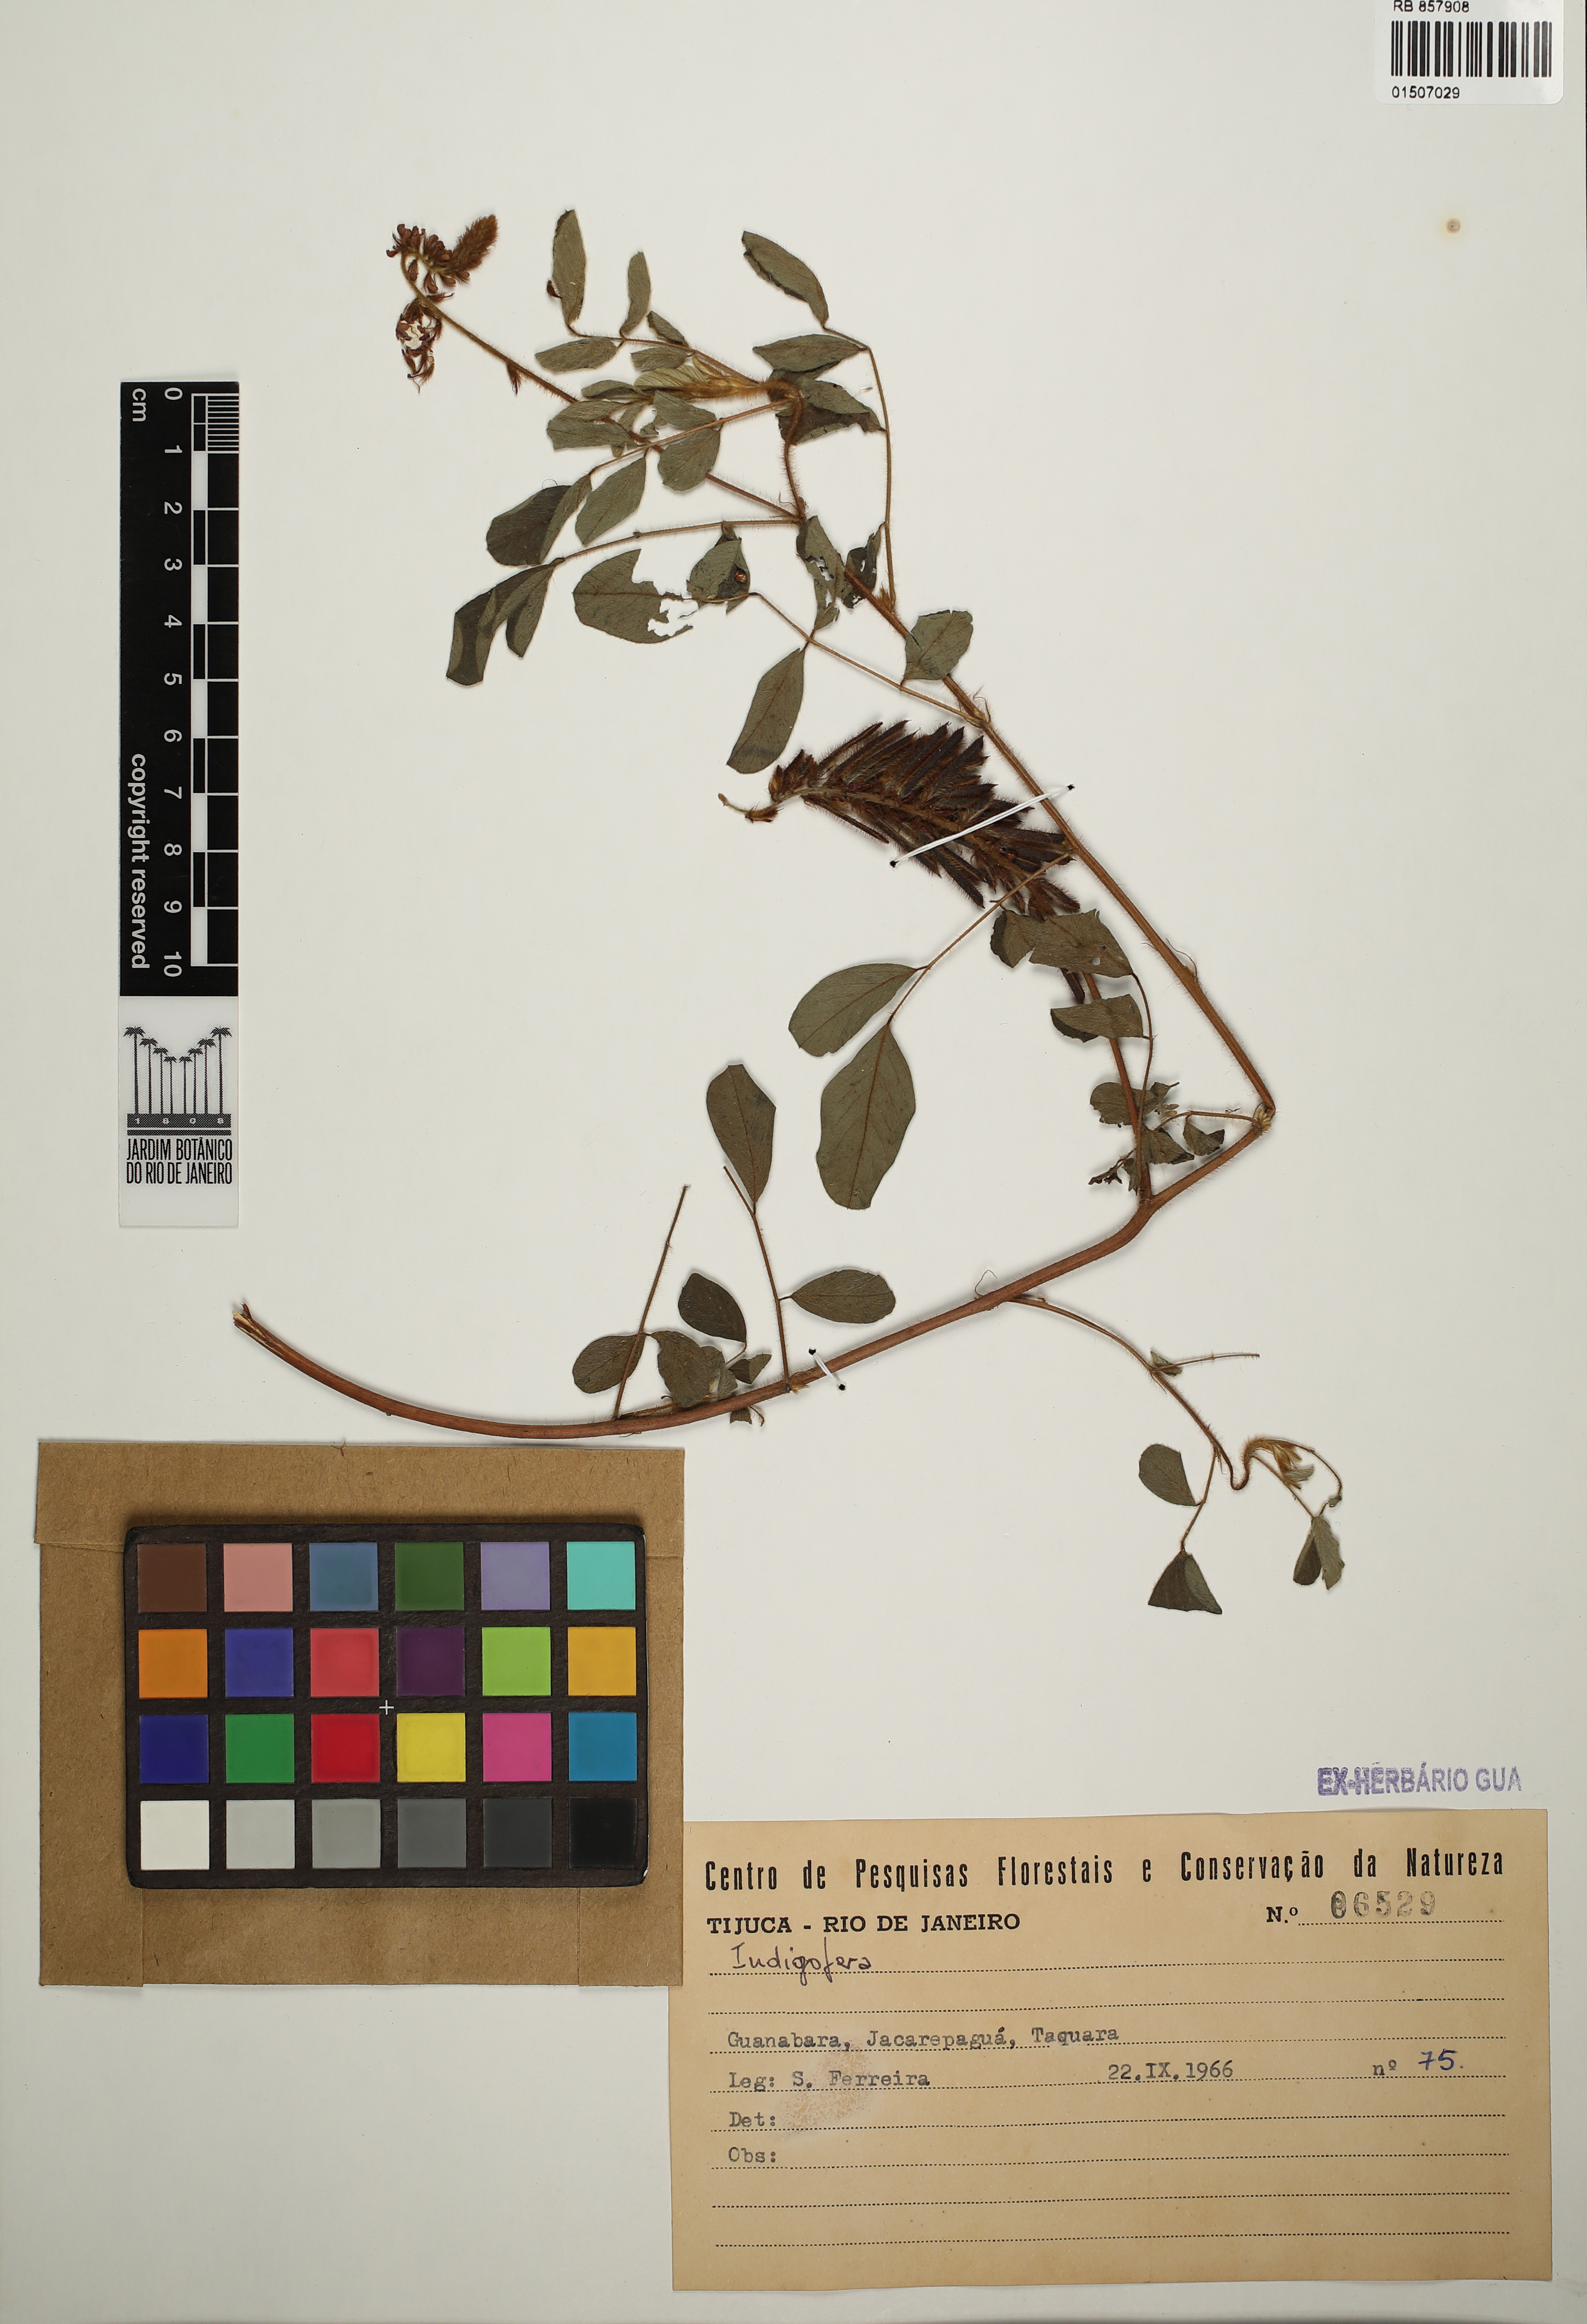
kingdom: Plantae
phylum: Tracheophyta
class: Magnoliopsida
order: Fabales
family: Fabaceae
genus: Indigofera
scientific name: Indigofera
